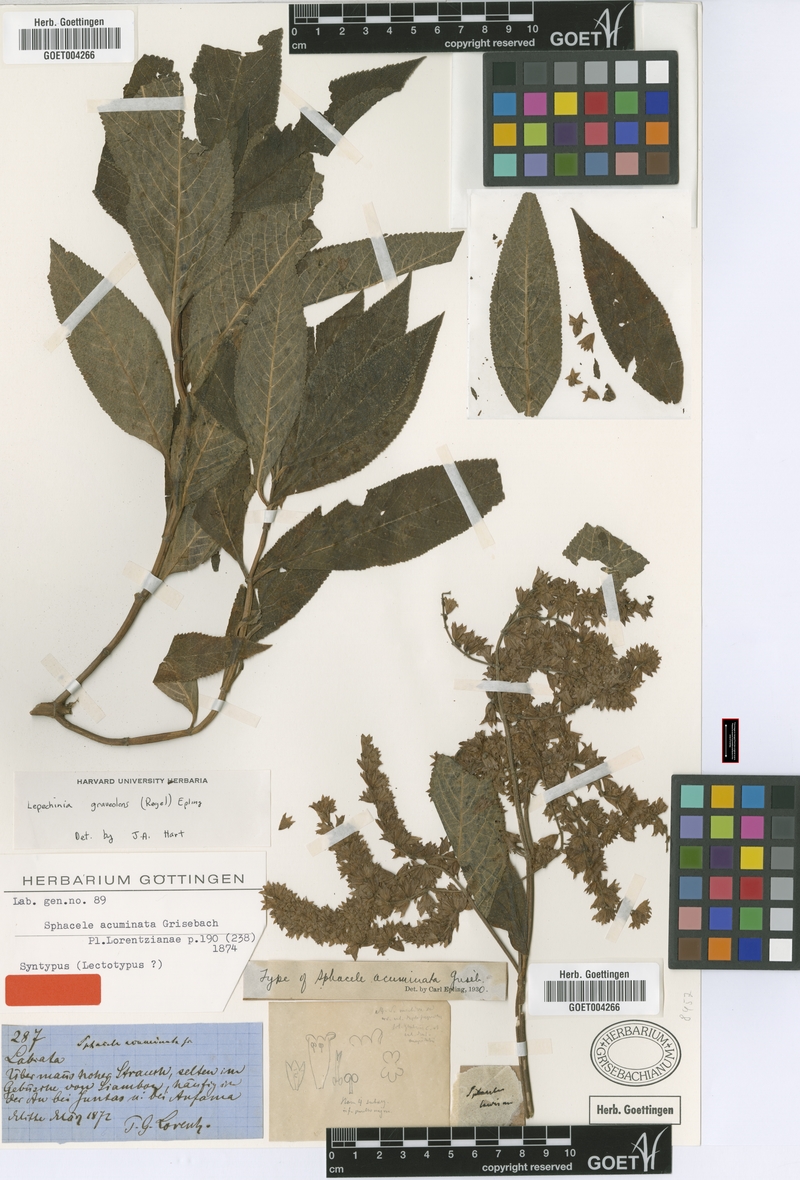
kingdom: Plantae
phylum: Tracheophyta
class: Magnoliopsida
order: Lamiales
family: Lamiaceae
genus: Lepechinia
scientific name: Lepechinia graveolens
